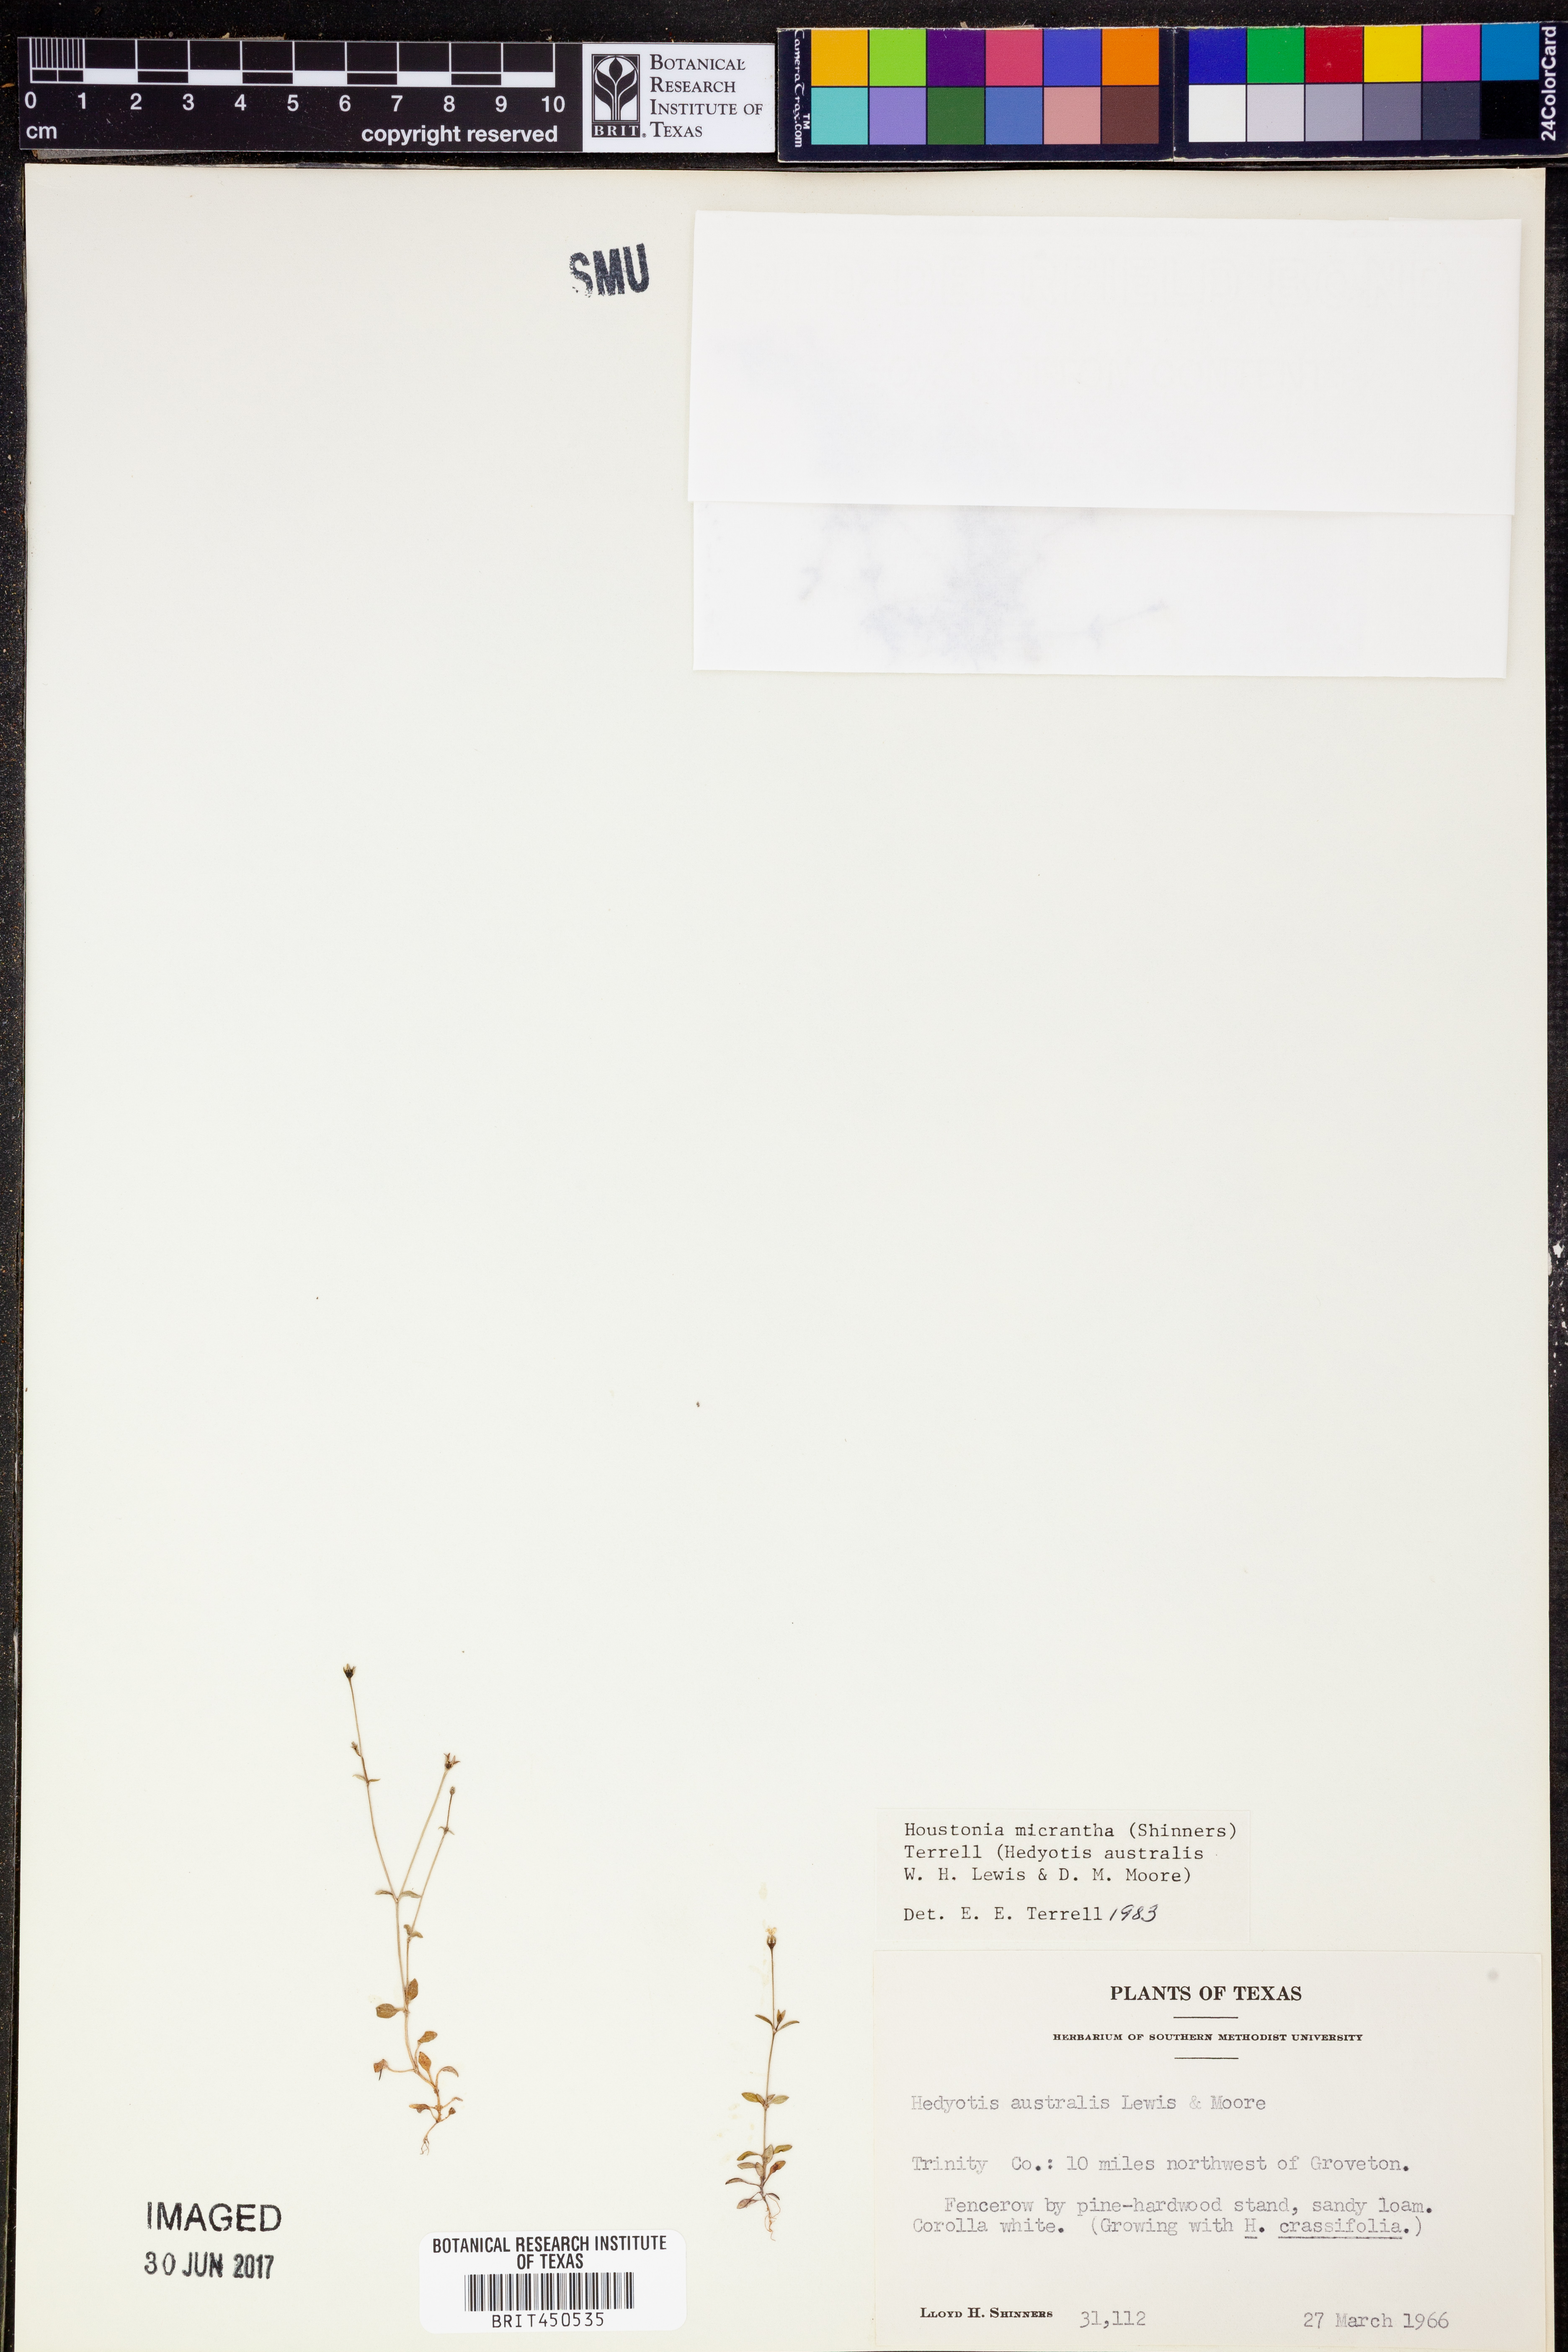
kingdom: Plantae
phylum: Tracheophyta
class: Magnoliopsida
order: Gentianales
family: Rubiaceae
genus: Houstonia
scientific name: Houstonia micrantha
